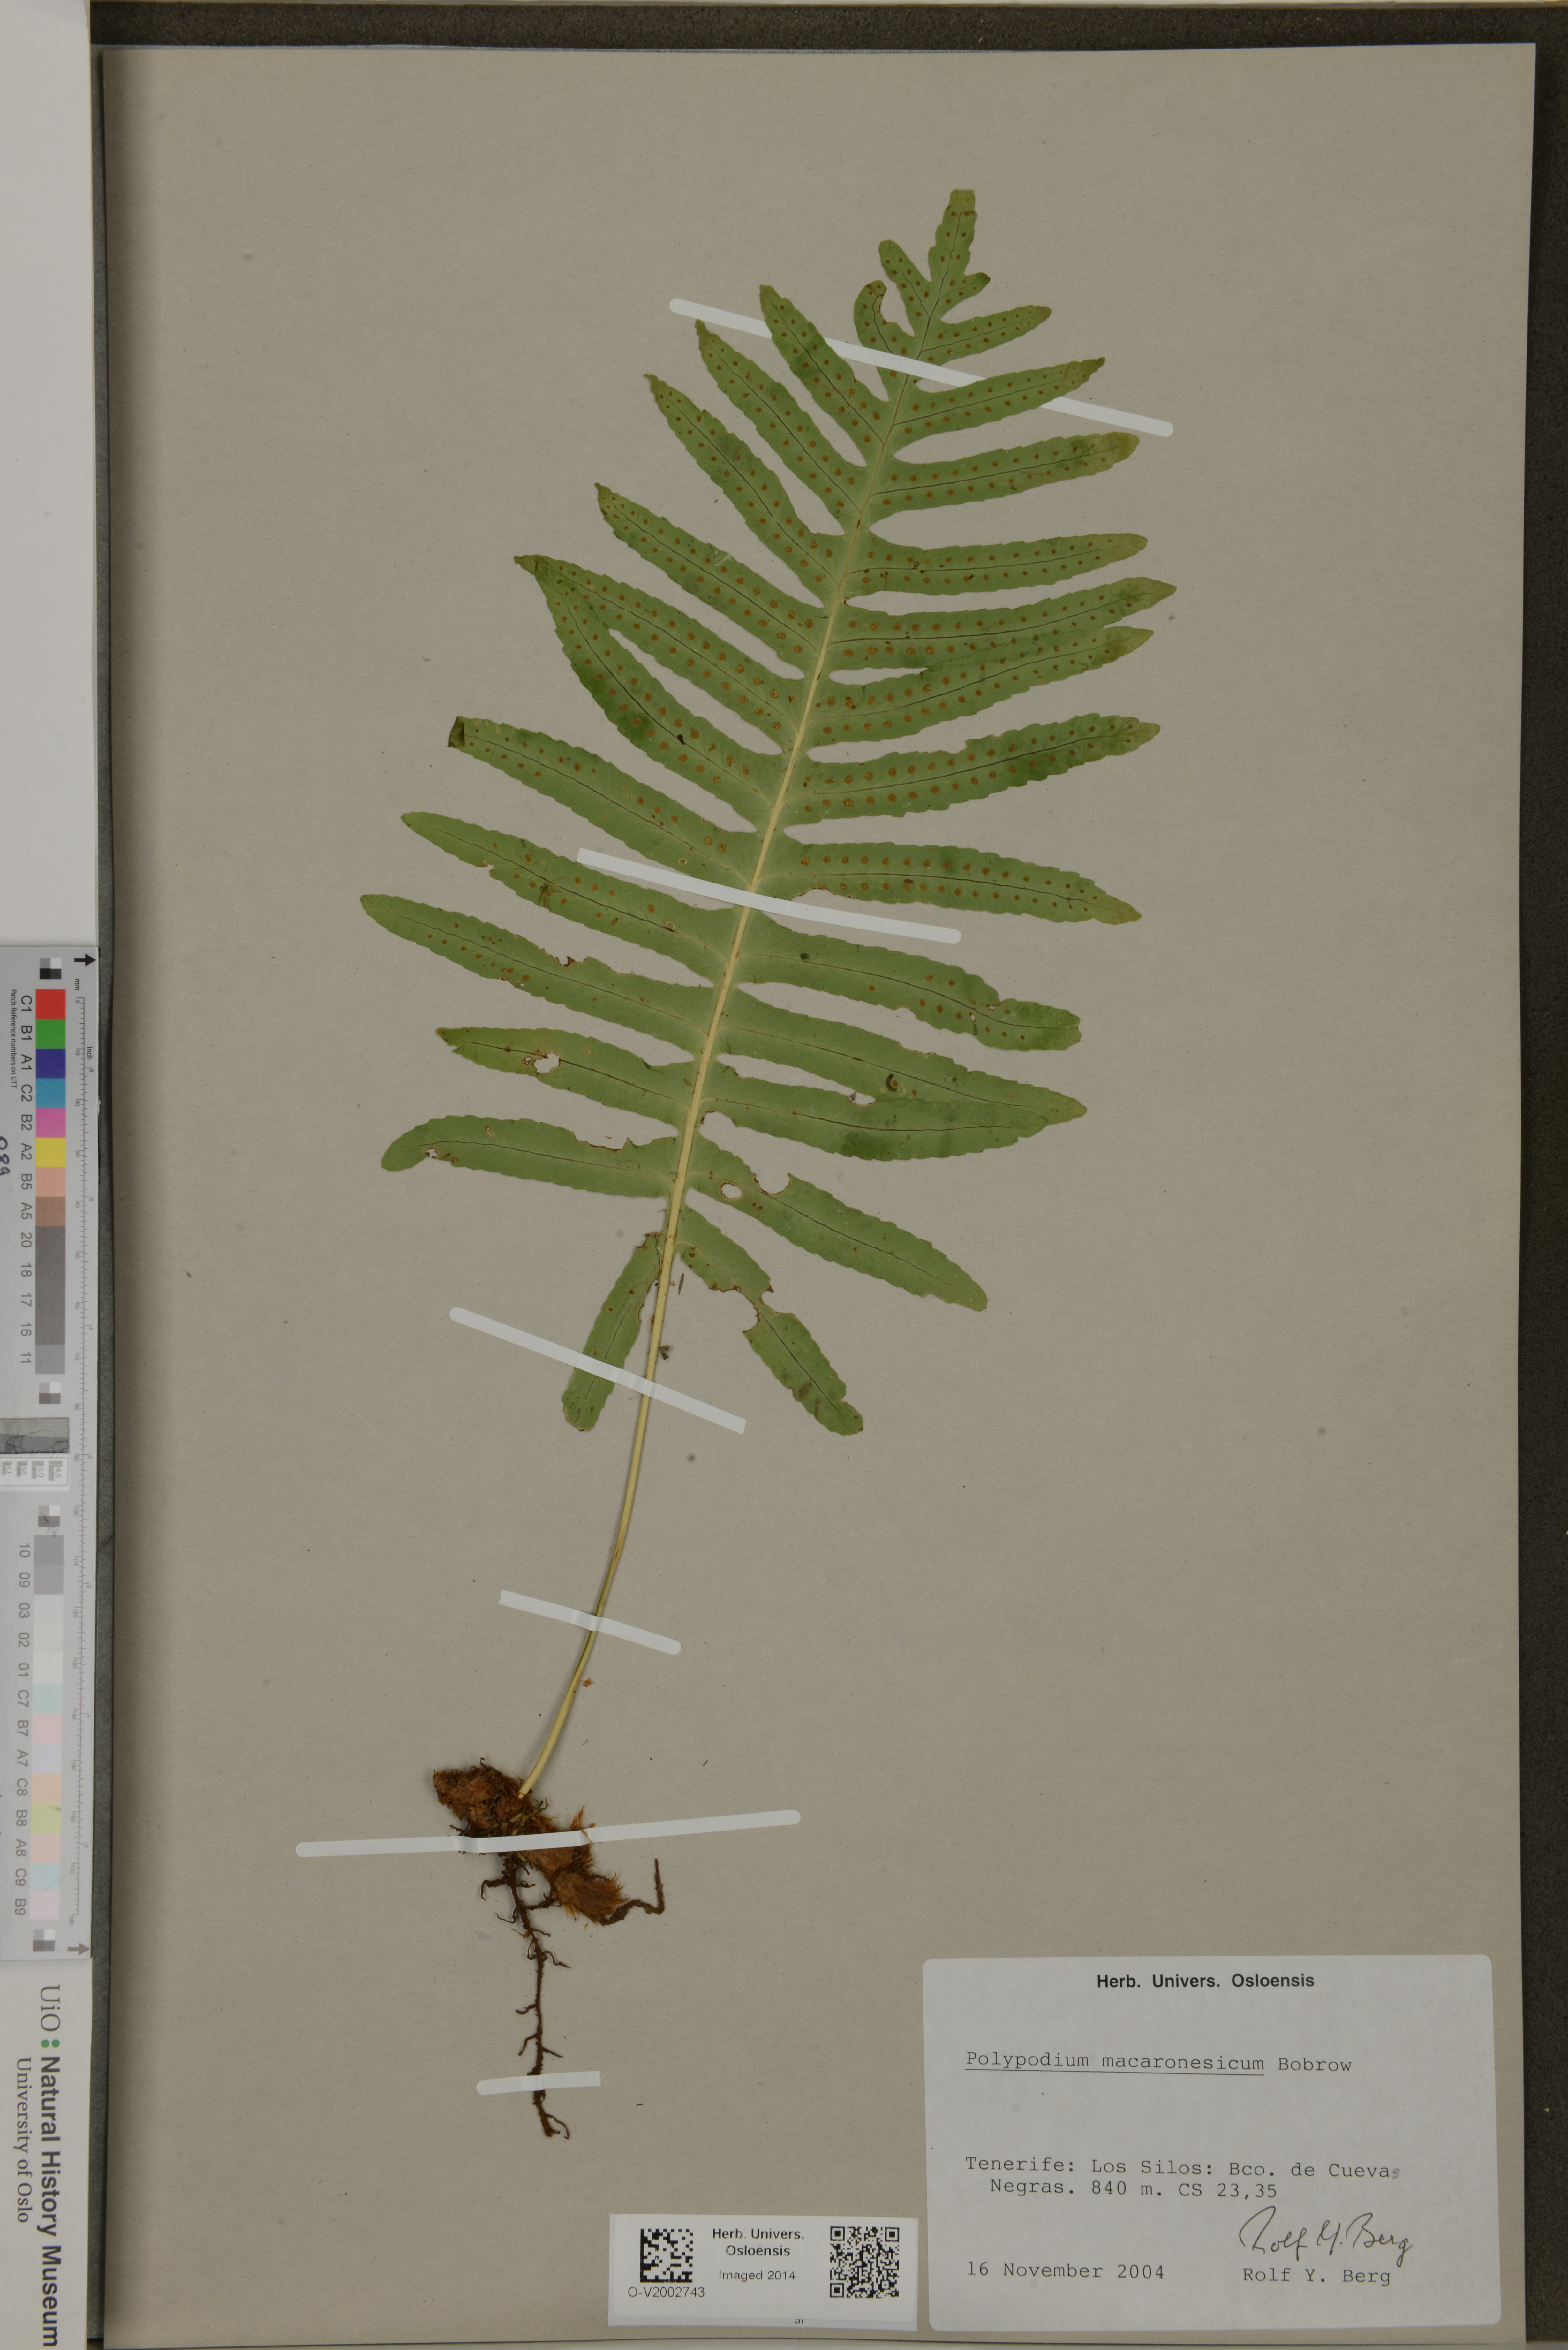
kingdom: Plantae
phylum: Tracheophyta
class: Polypodiopsida
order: Polypodiales
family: Polypodiaceae
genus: Polypodium
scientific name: Polypodium macaronesicum
